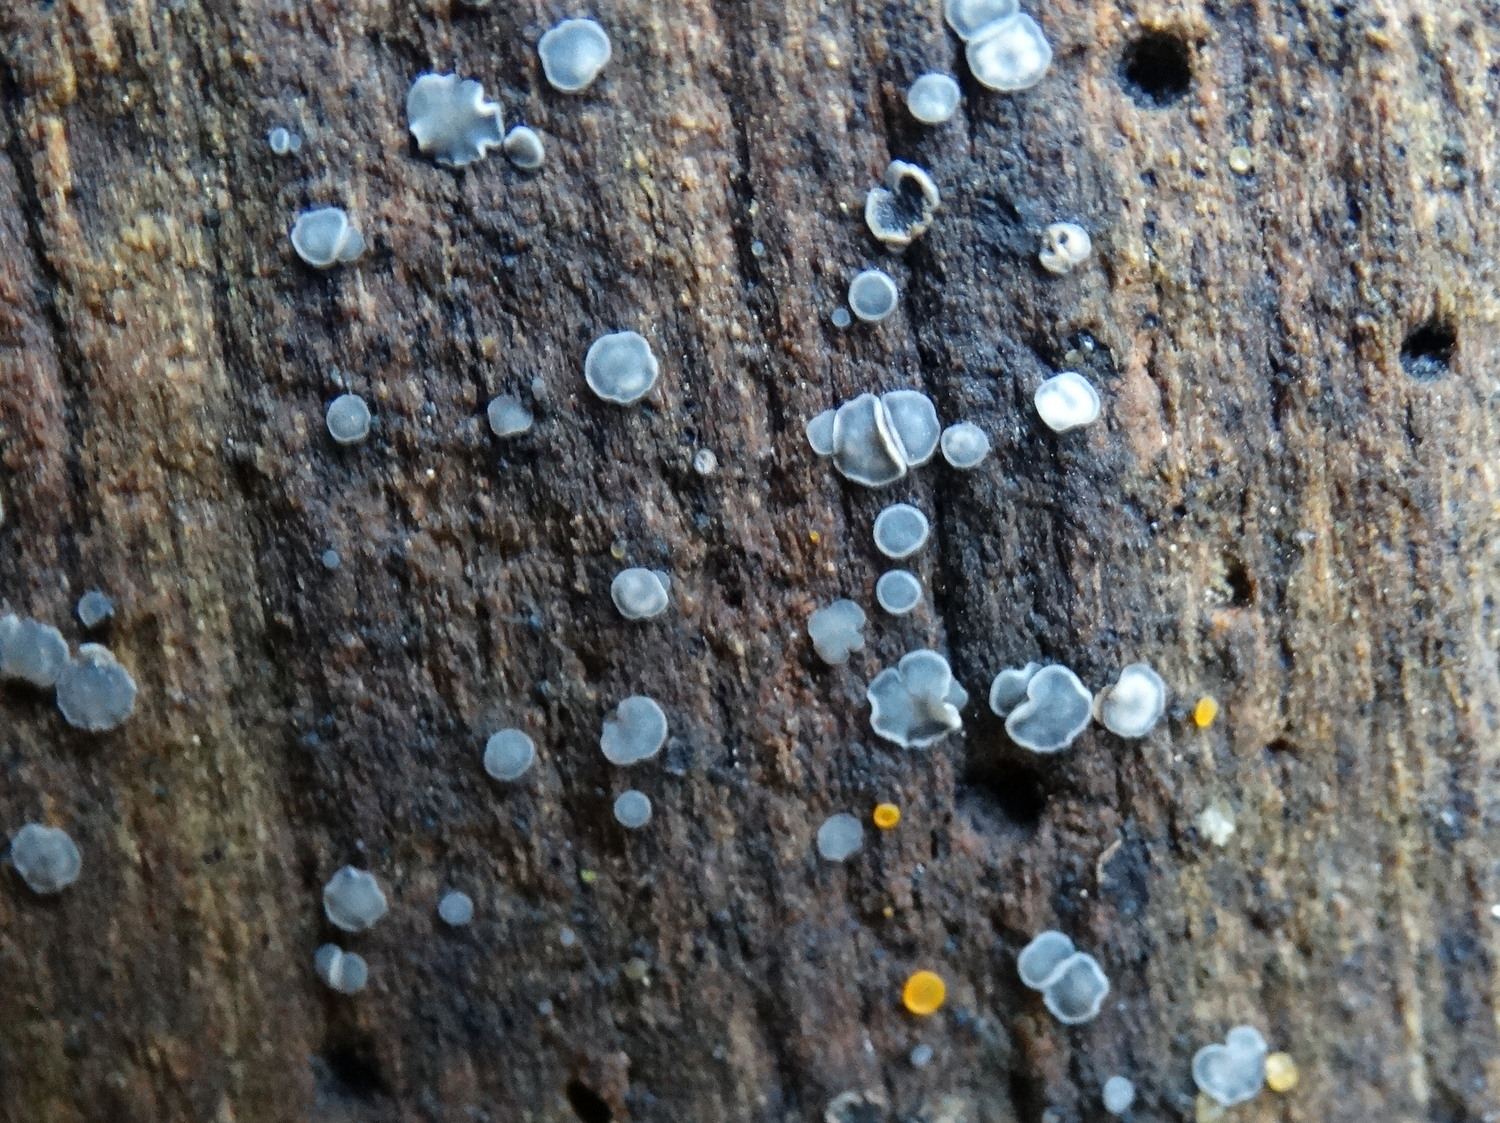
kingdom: Fungi
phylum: Ascomycota
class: Leotiomycetes
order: Helotiales
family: Mollisiaceae
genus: Mollisia
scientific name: Mollisia cinerea
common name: almindelig gråskive
